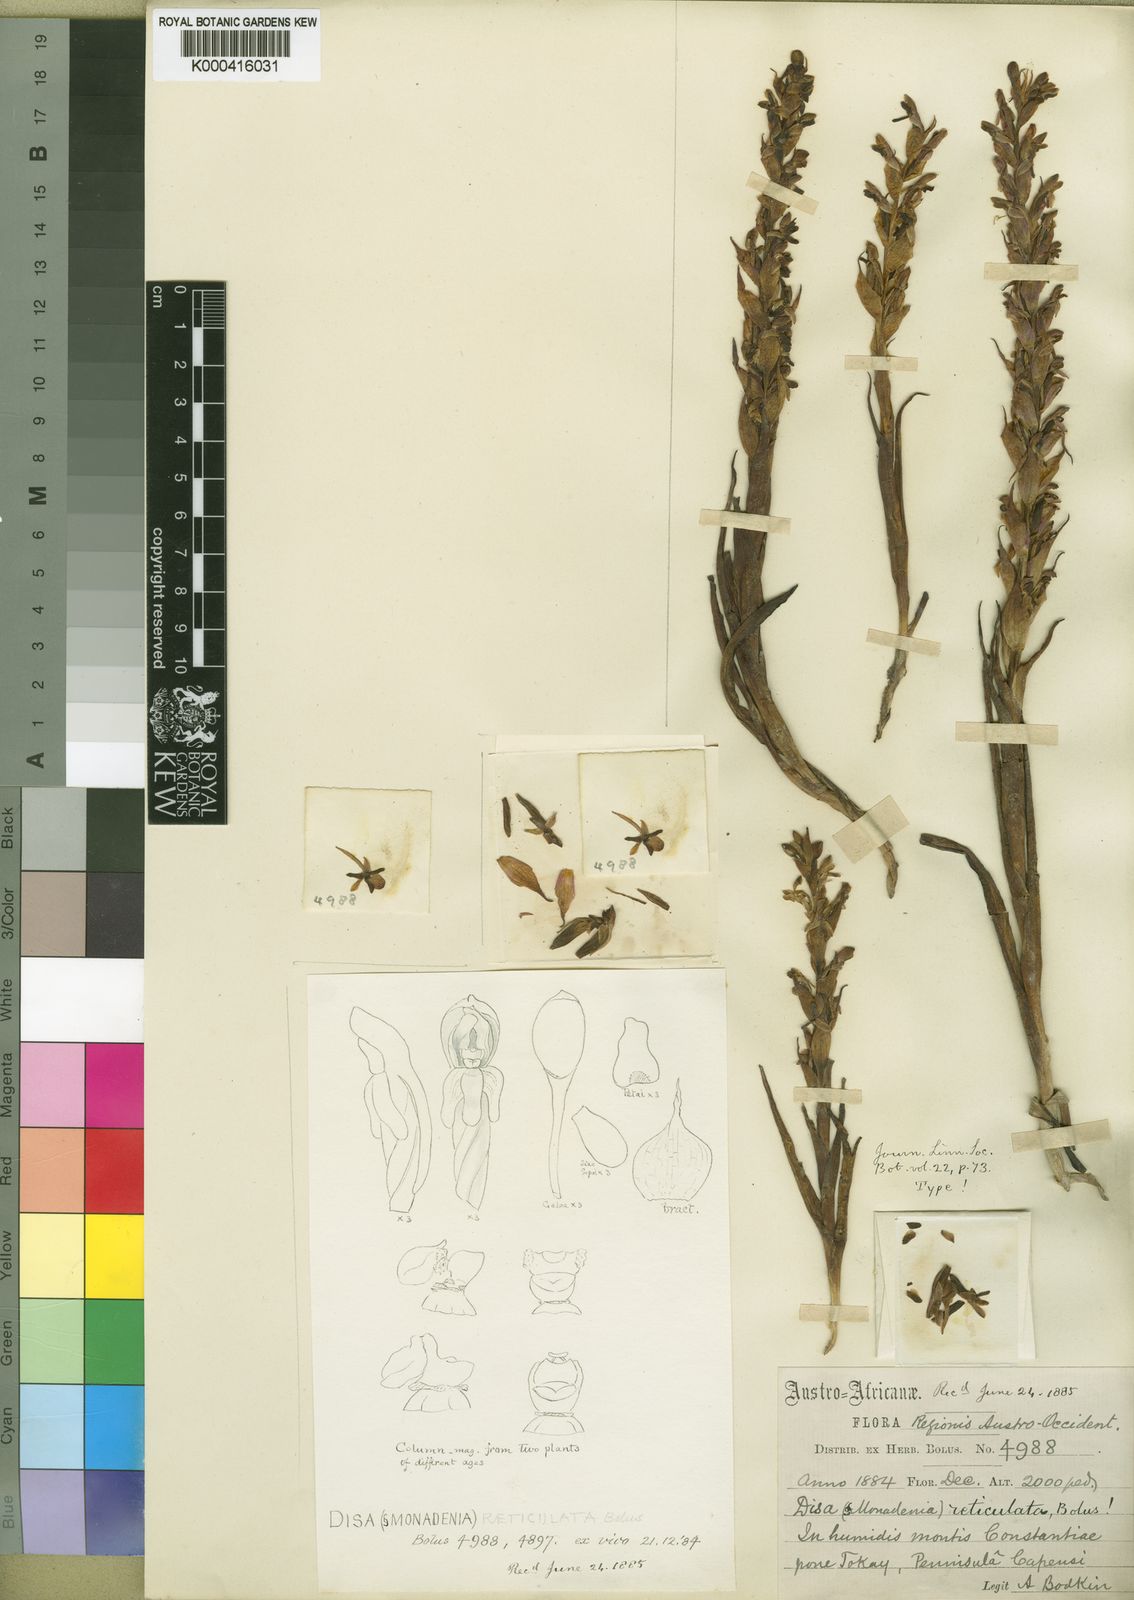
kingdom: Plantae
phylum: Tracheophyta
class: Liliopsida
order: Asparagales
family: Orchidaceae
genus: Disa
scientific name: Disa reticulata
